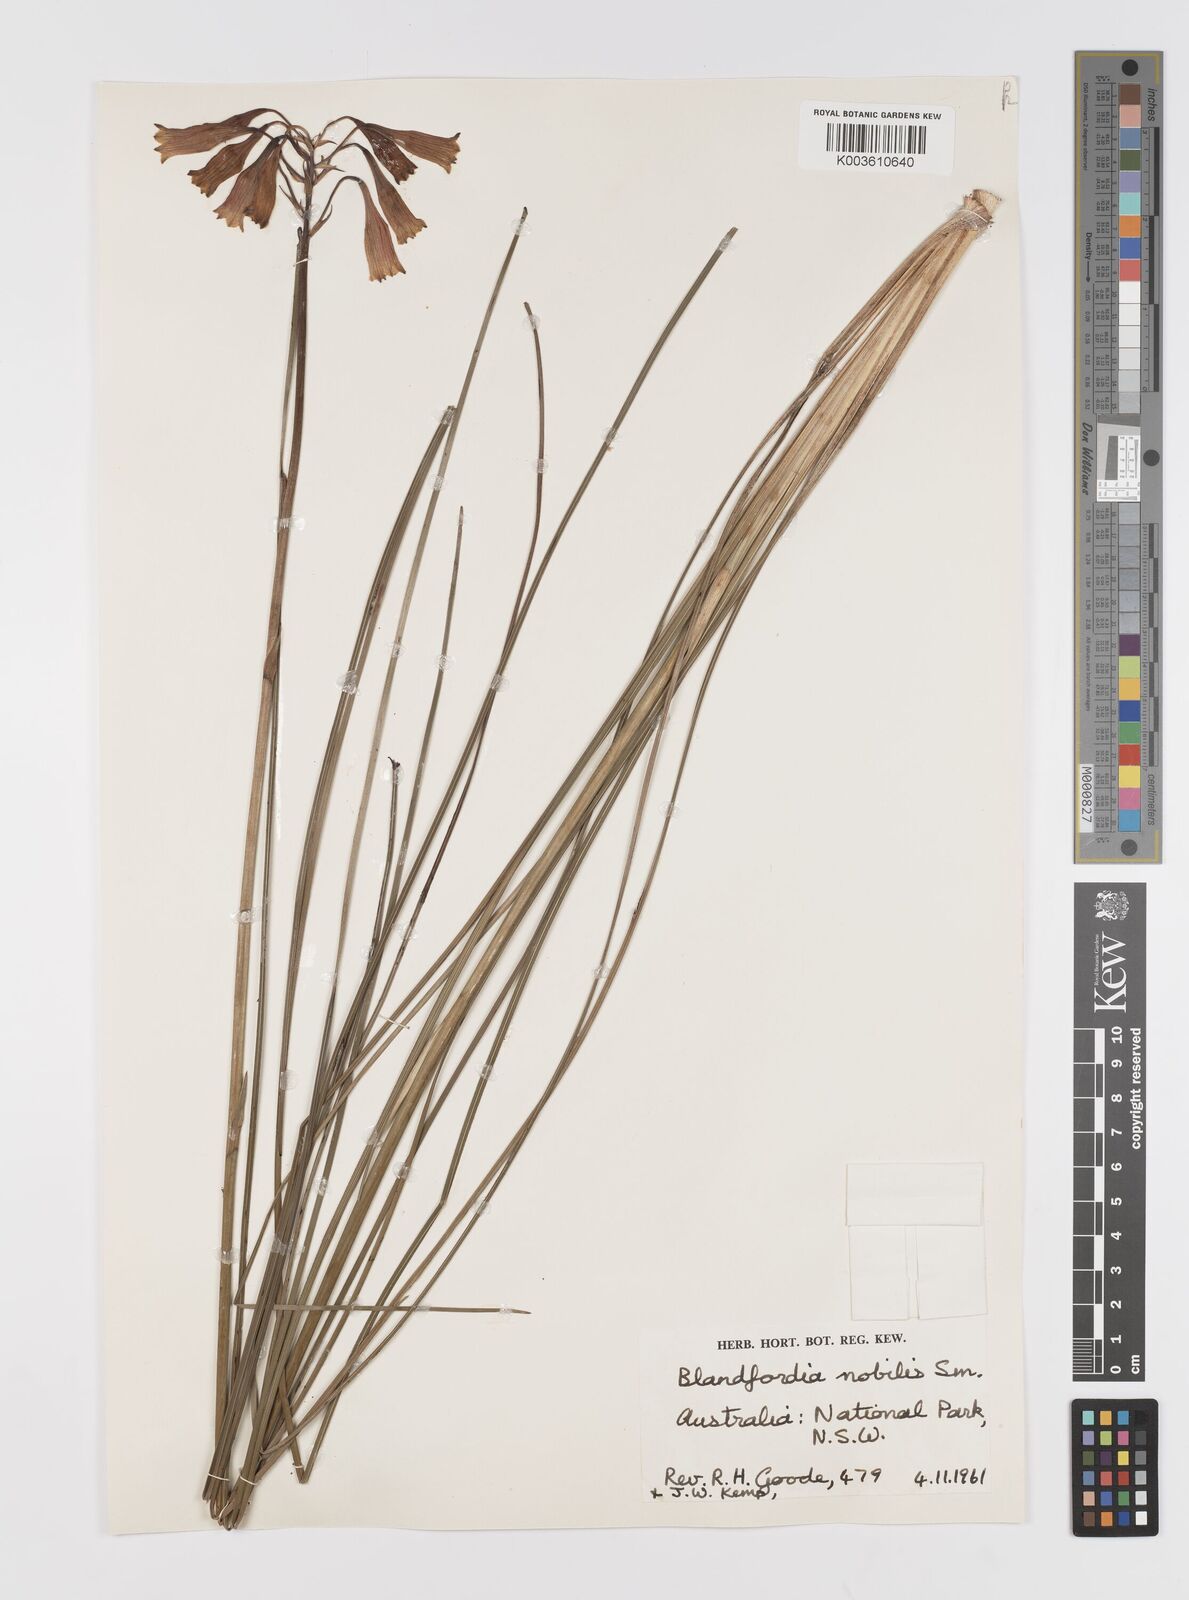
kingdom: Plantae
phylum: Tracheophyta
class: Liliopsida
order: Asparagales
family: Blandfordiaceae
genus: Blandfordia
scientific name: Blandfordia nobilis
